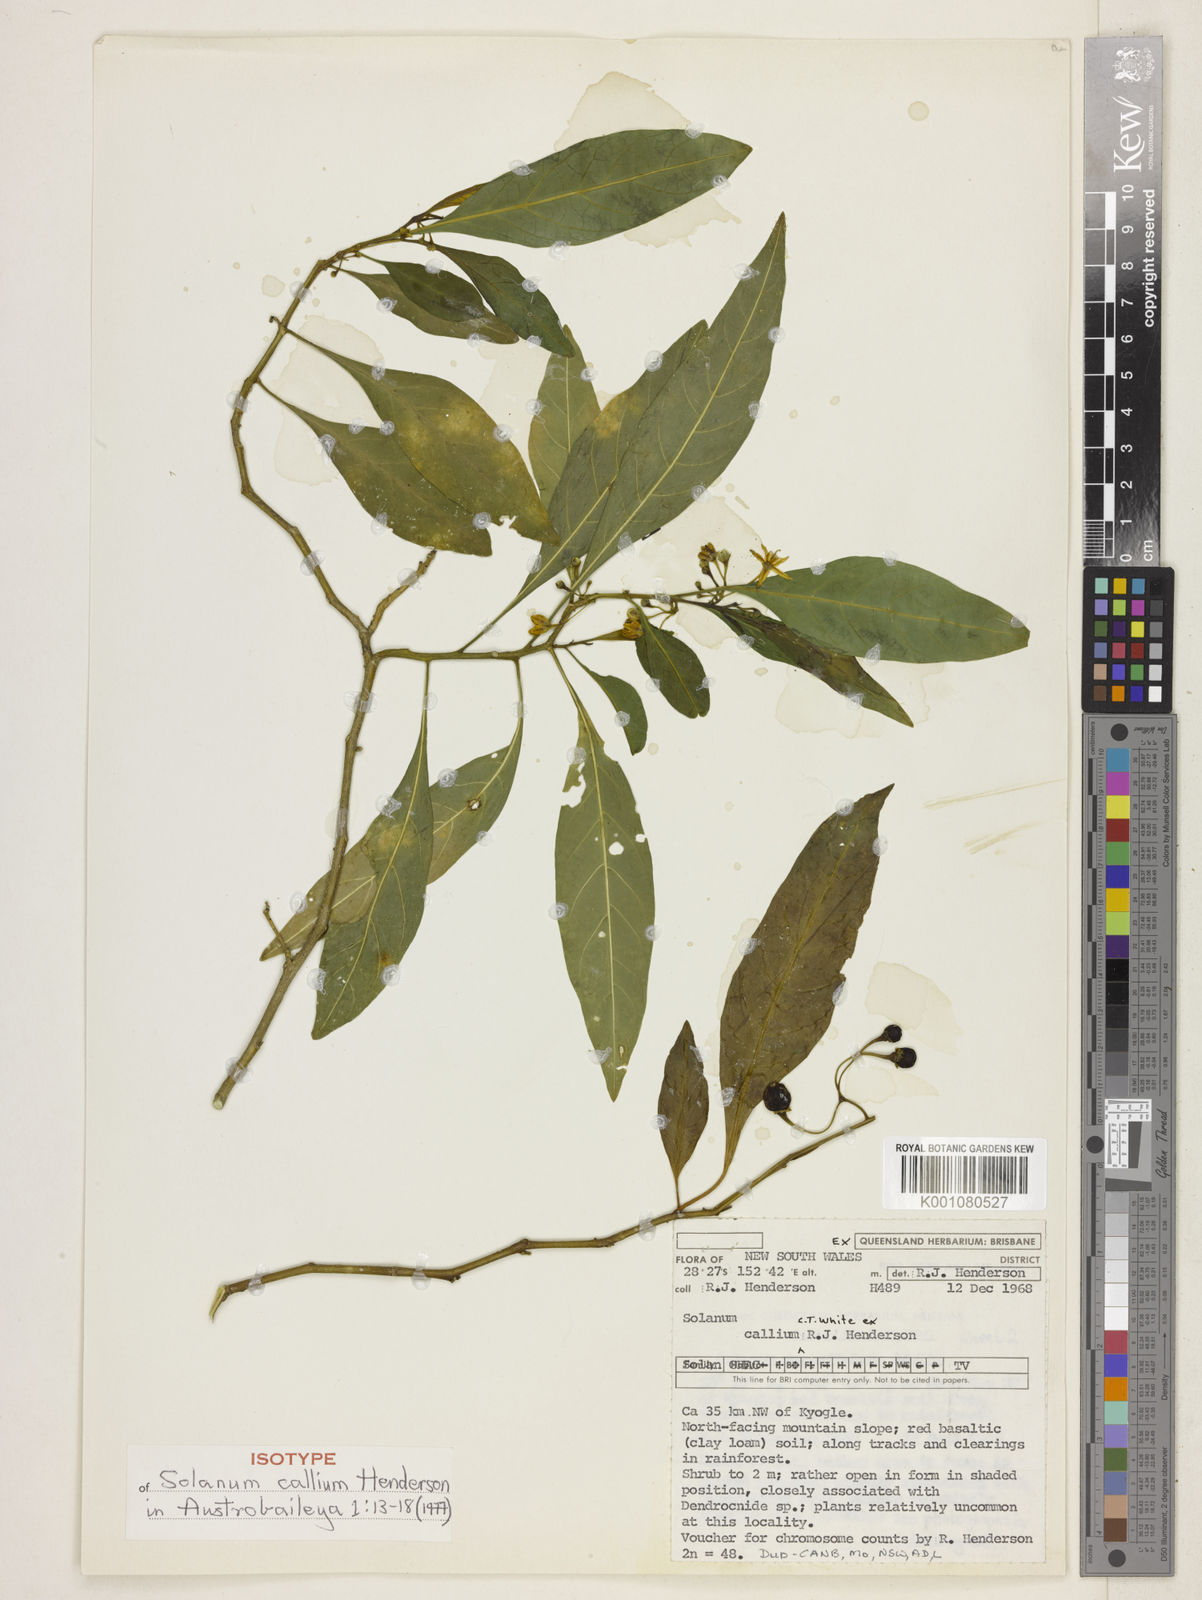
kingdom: Plantae
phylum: Tracheophyta
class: Magnoliopsida
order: Solanales
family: Solanaceae
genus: Solanum
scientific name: Solanum spirale
